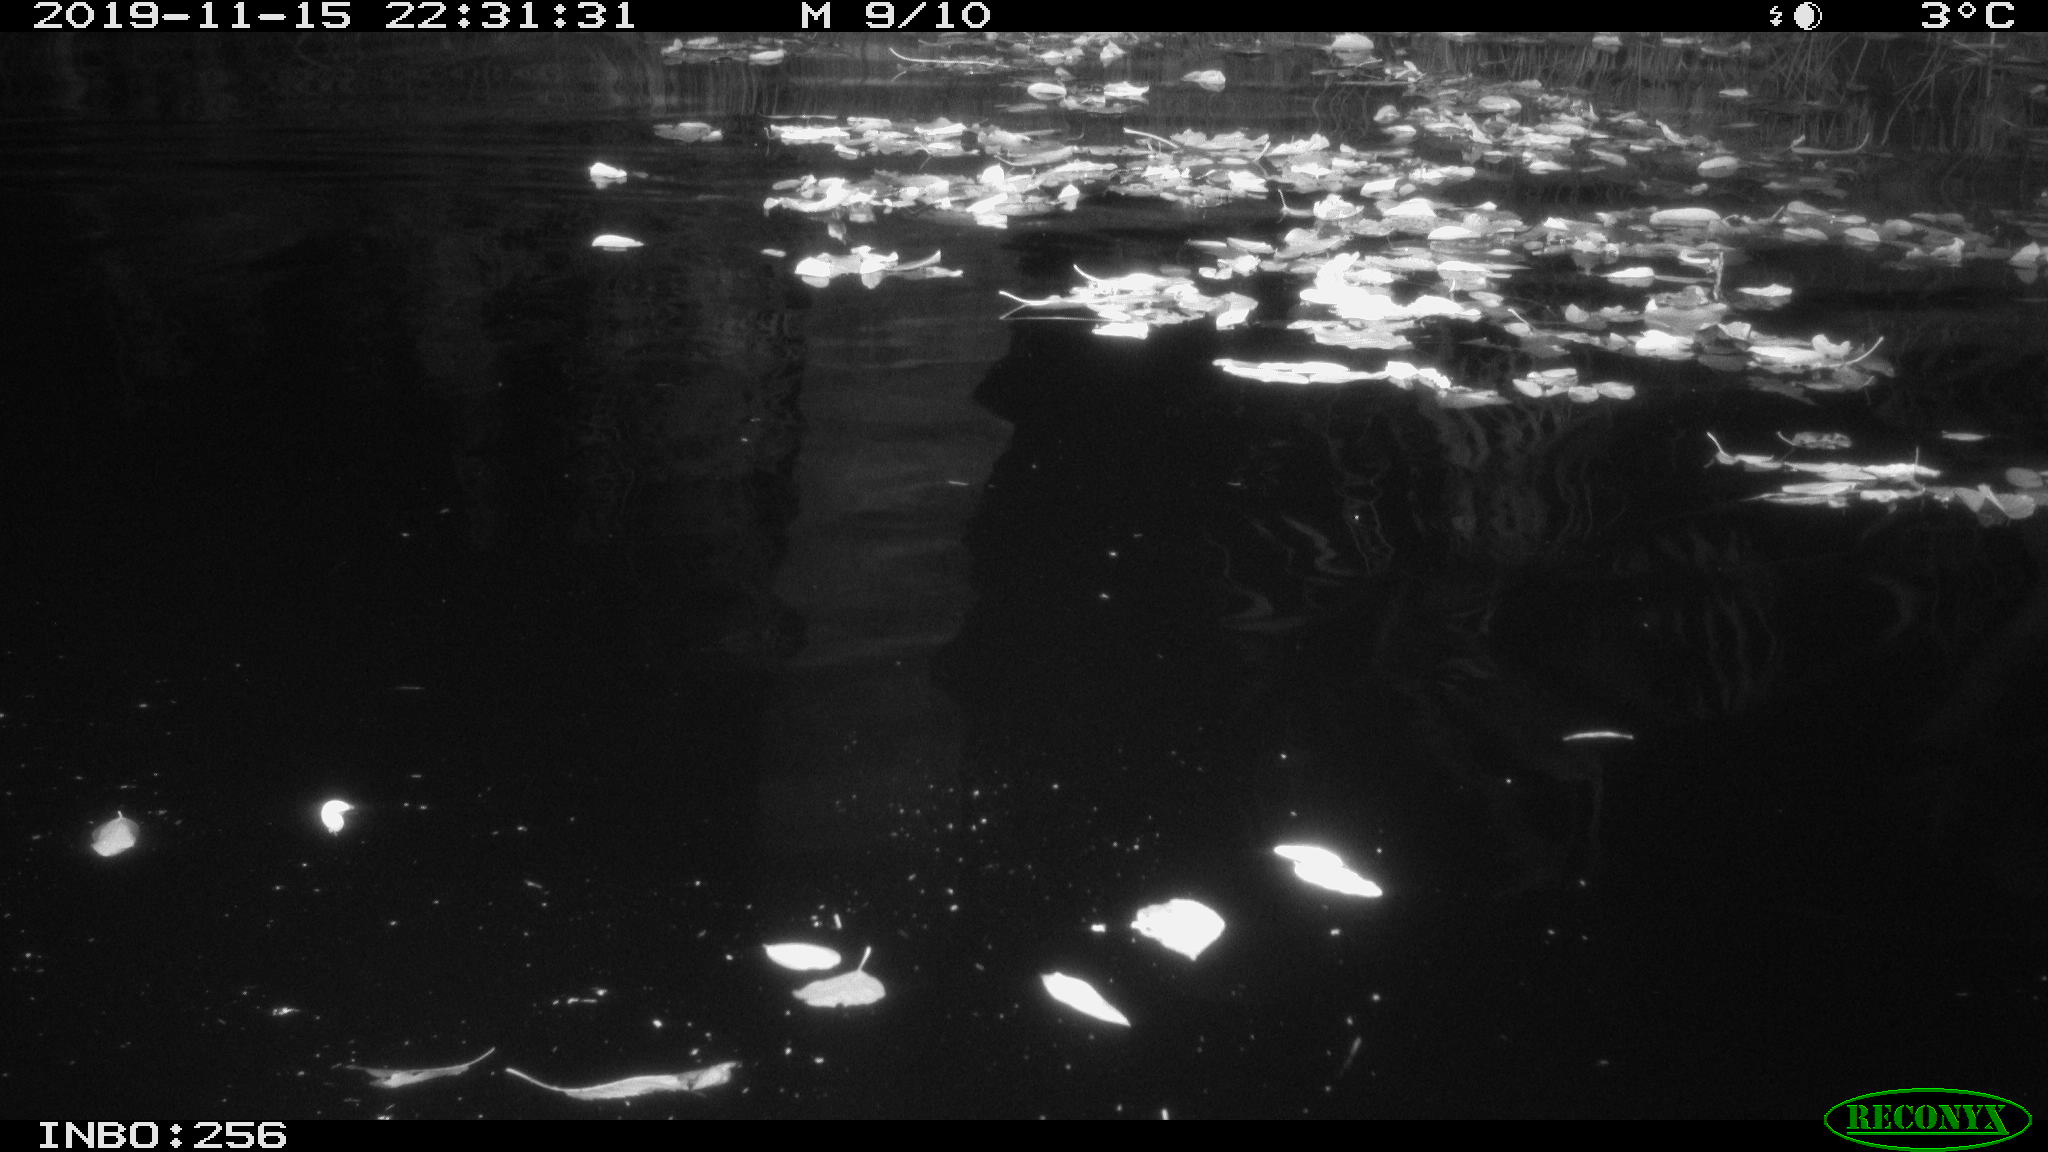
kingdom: Animalia
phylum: Chordata
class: Aves
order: Anseriformes
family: Anatidae
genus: Anas
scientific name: Anas platyrhynchos
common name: Mallard
